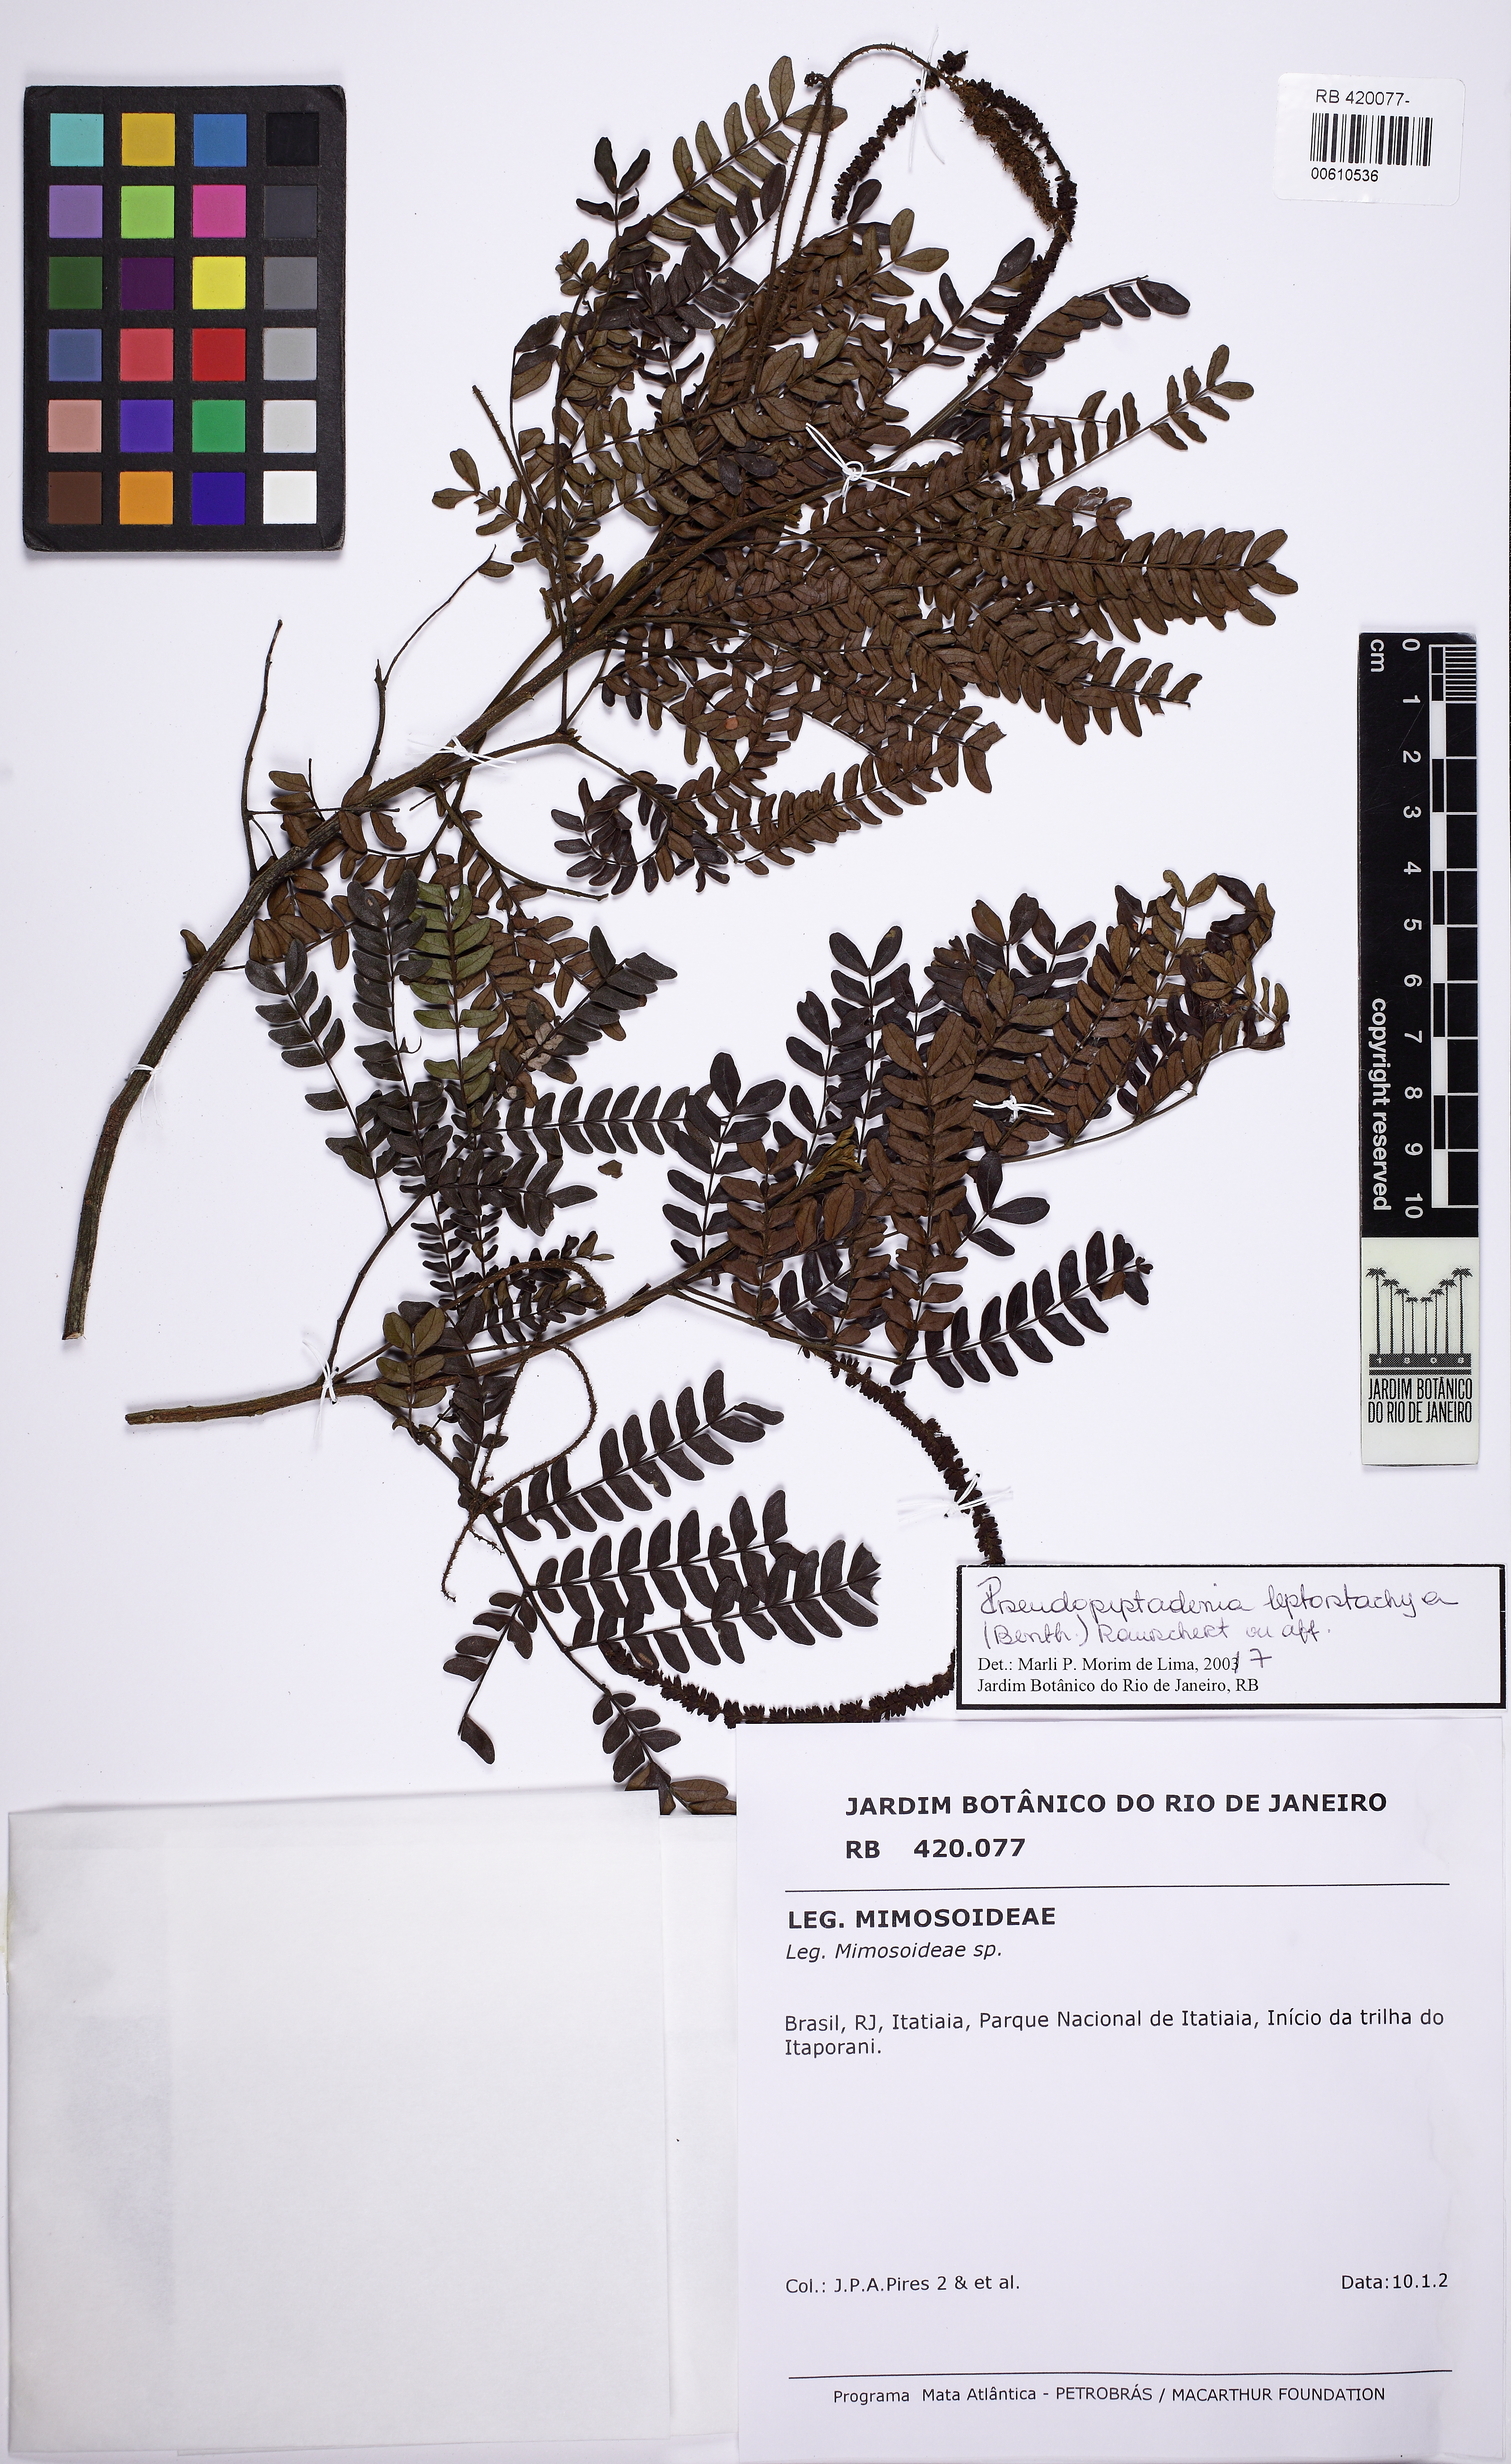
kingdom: Plantae
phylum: Tracheophyta
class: Magnoliopsida
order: Fabales
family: Fabaceae
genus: Pseudopiptadenia
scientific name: Pseudopiptadenia leptostachya
